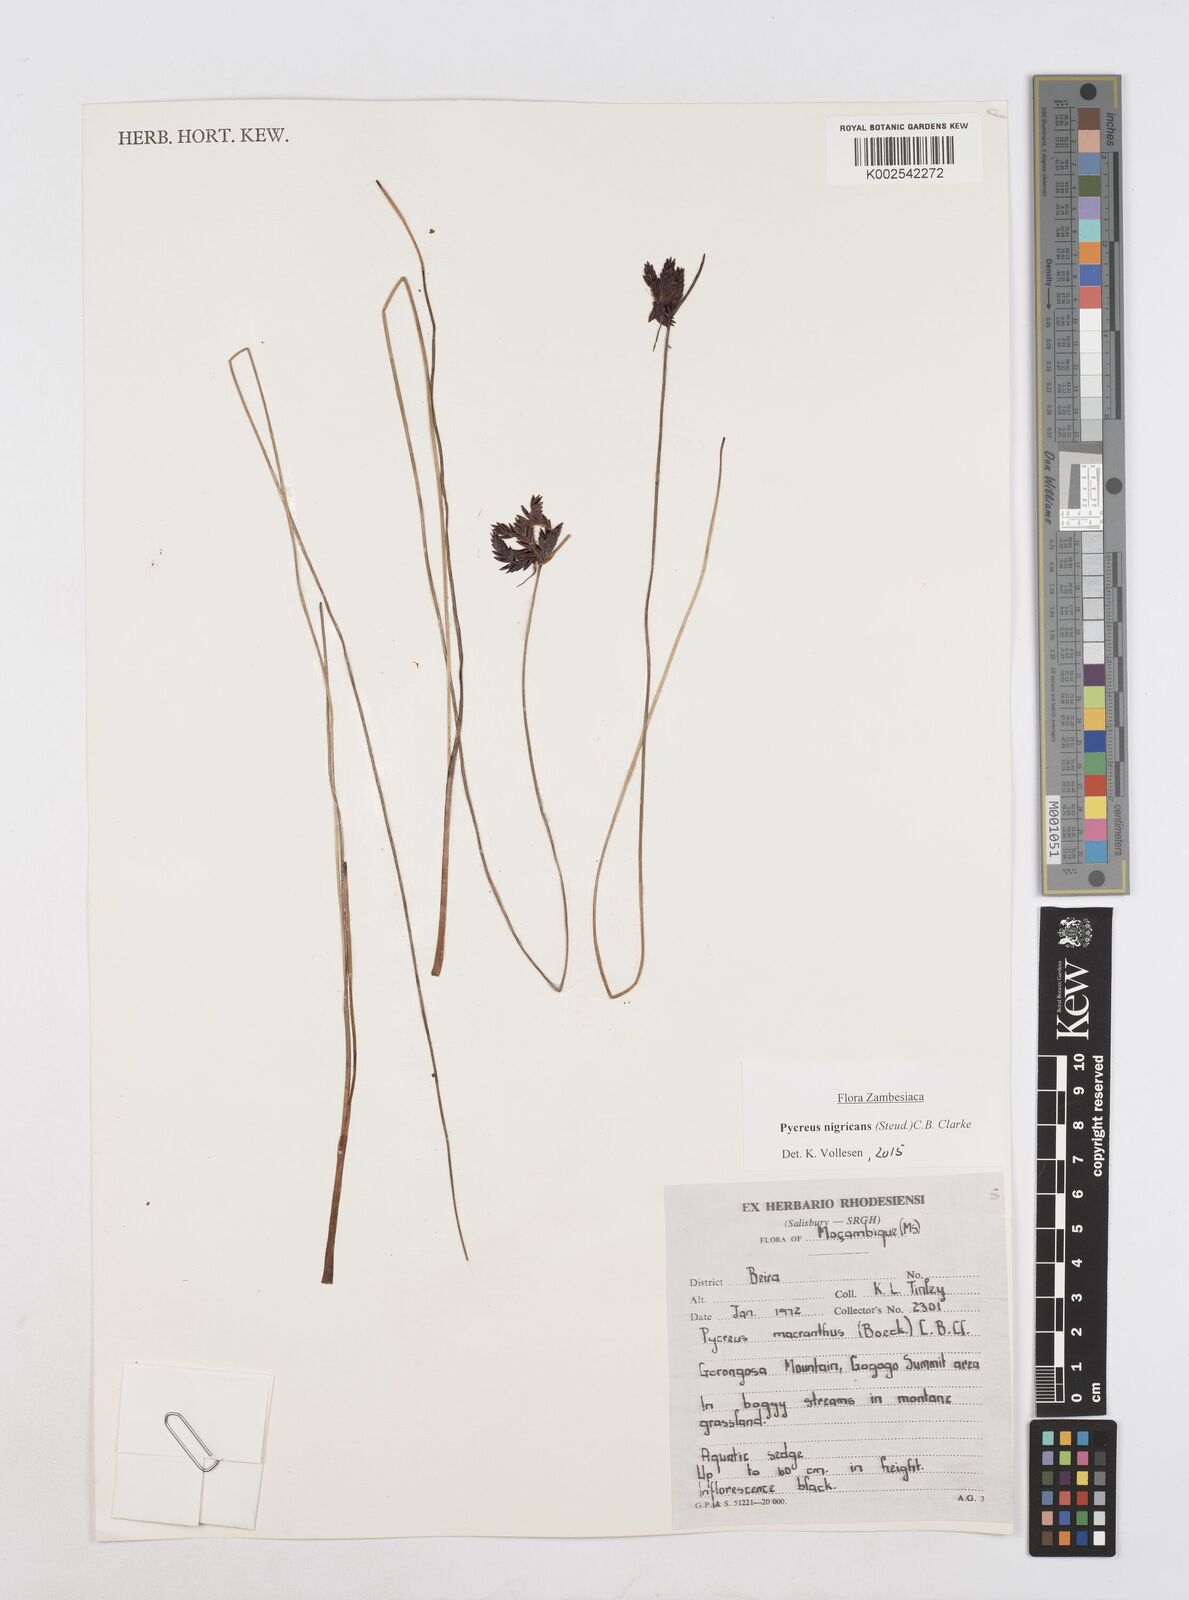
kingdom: Plantae
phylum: Tracheophyta
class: Liliopsida
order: Poales
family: Cyperaceae
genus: Cyperus
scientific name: Cyperus nigricans
